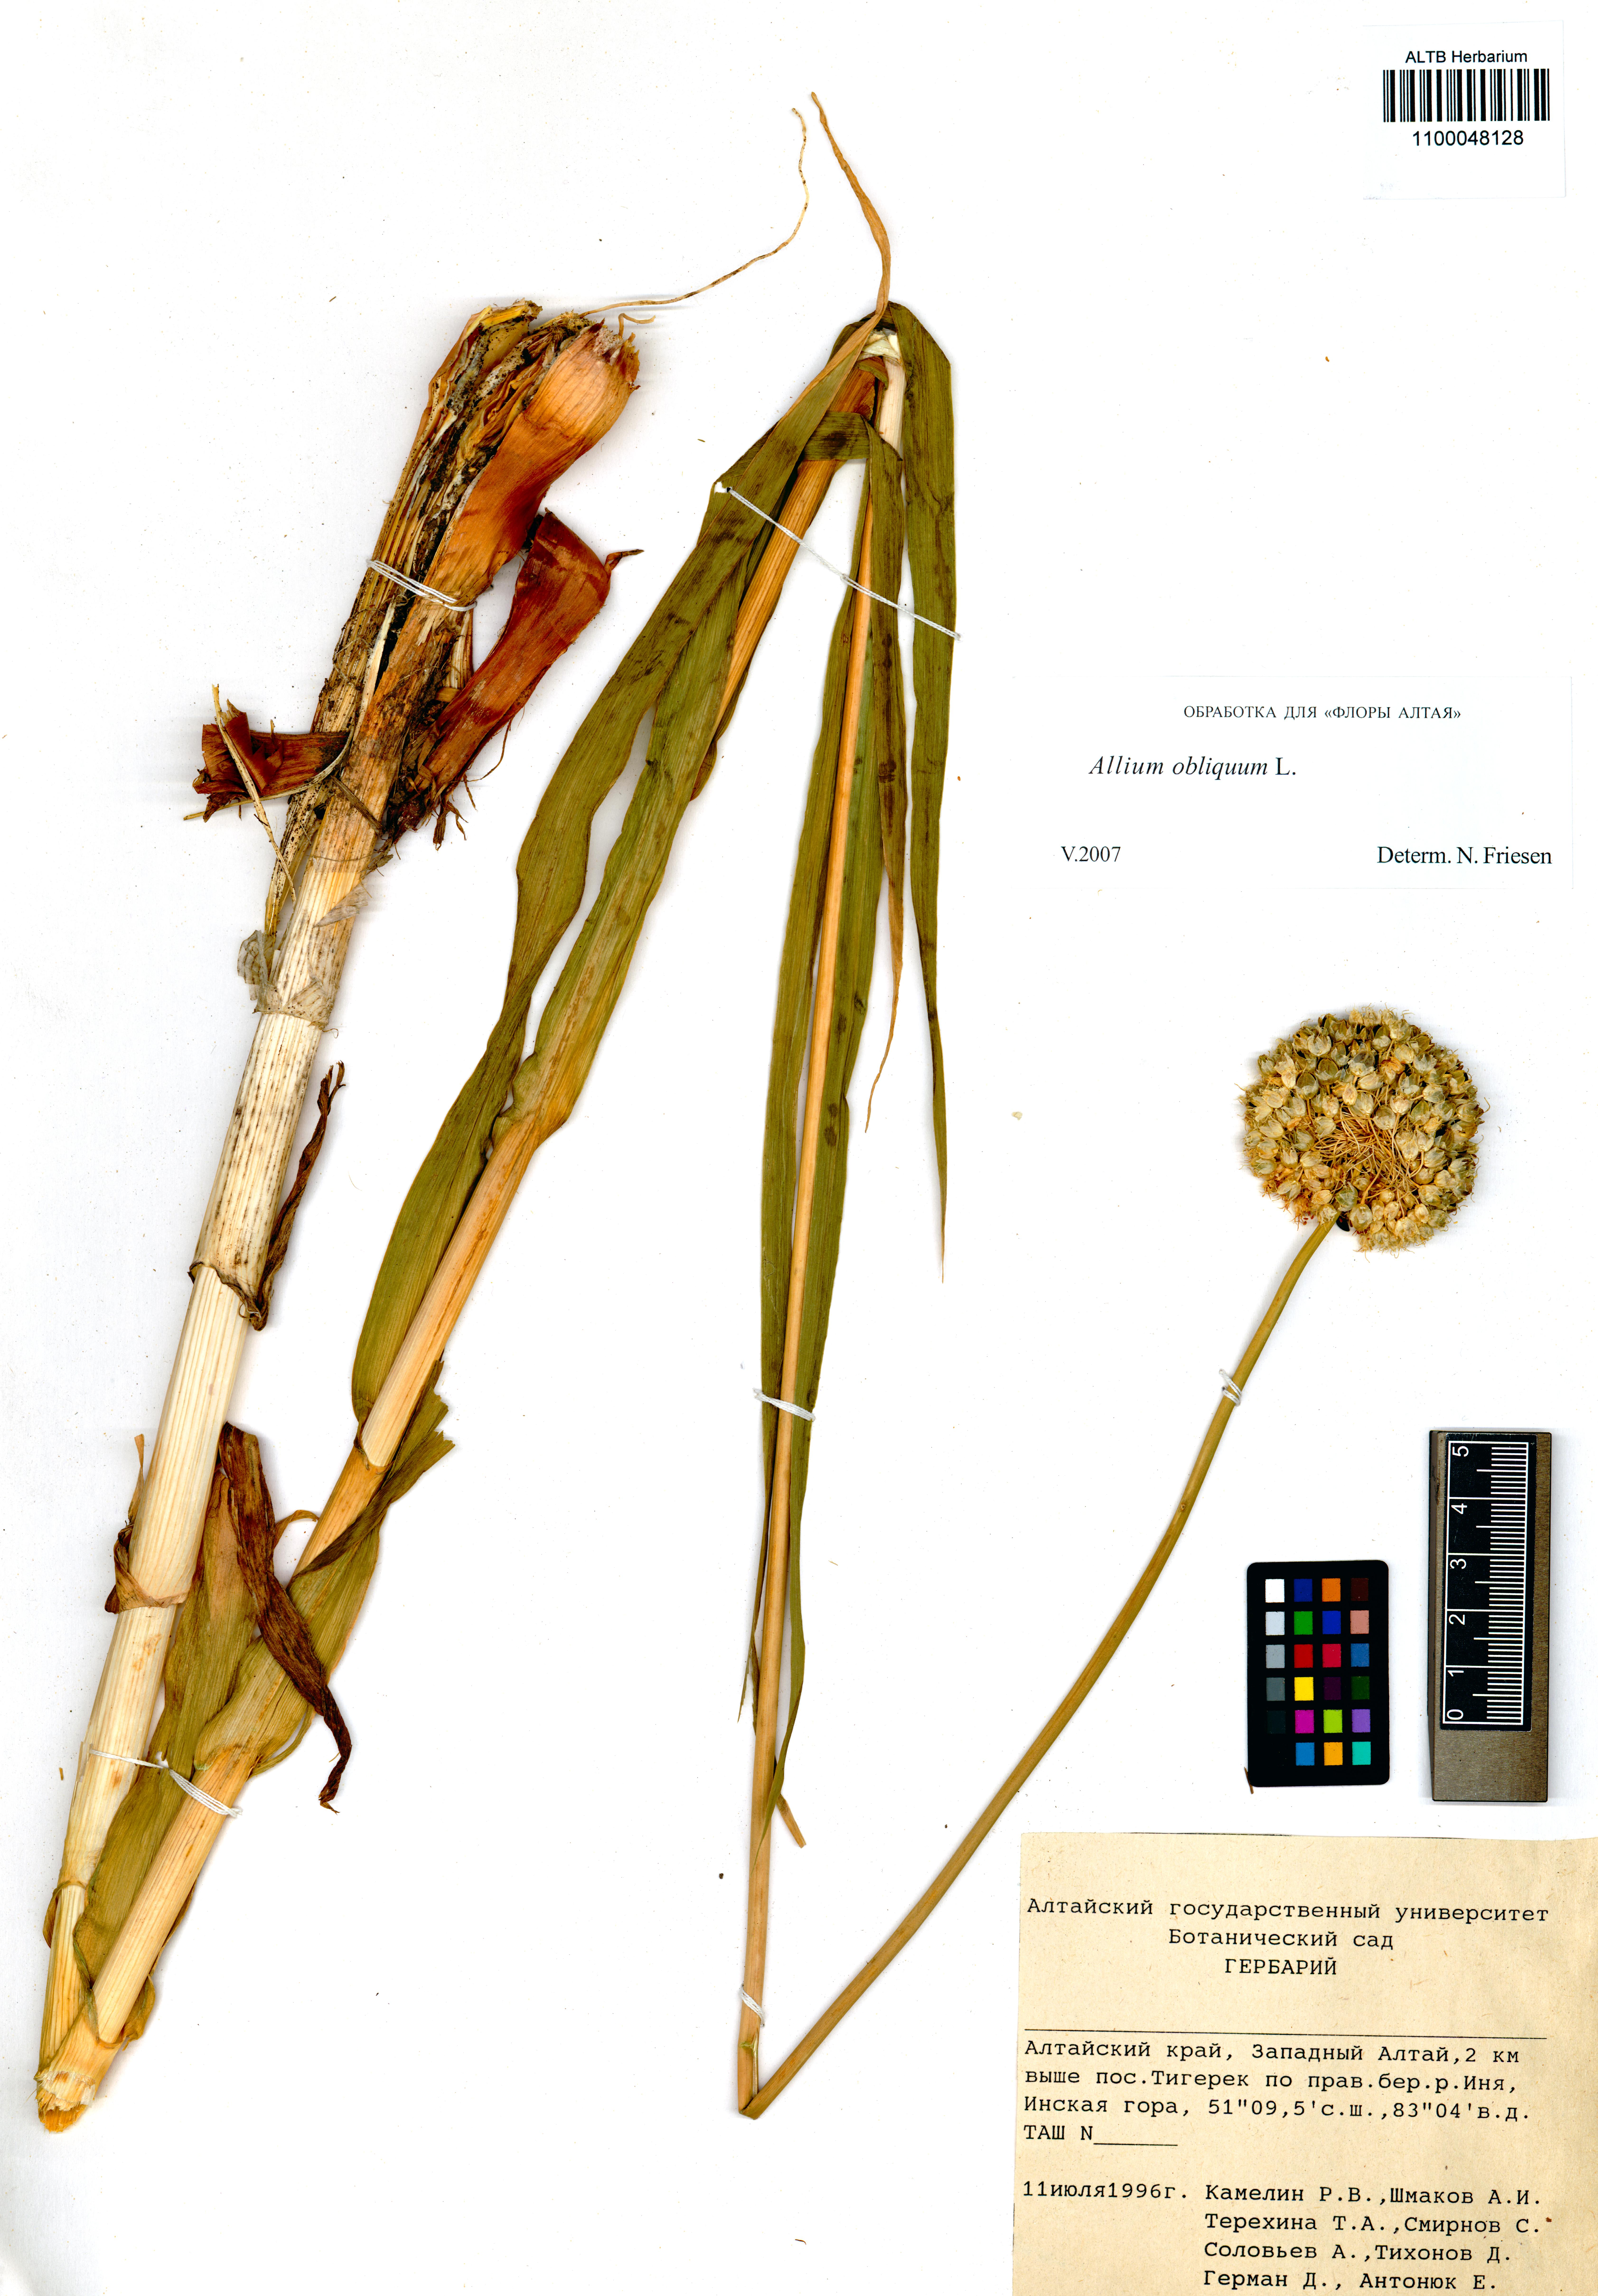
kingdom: Plantae
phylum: Tracheophyta
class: Liliopsida
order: Asparagales
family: Amaryllidaceae
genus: Allium
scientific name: Allium obliquum
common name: Oblique onion
